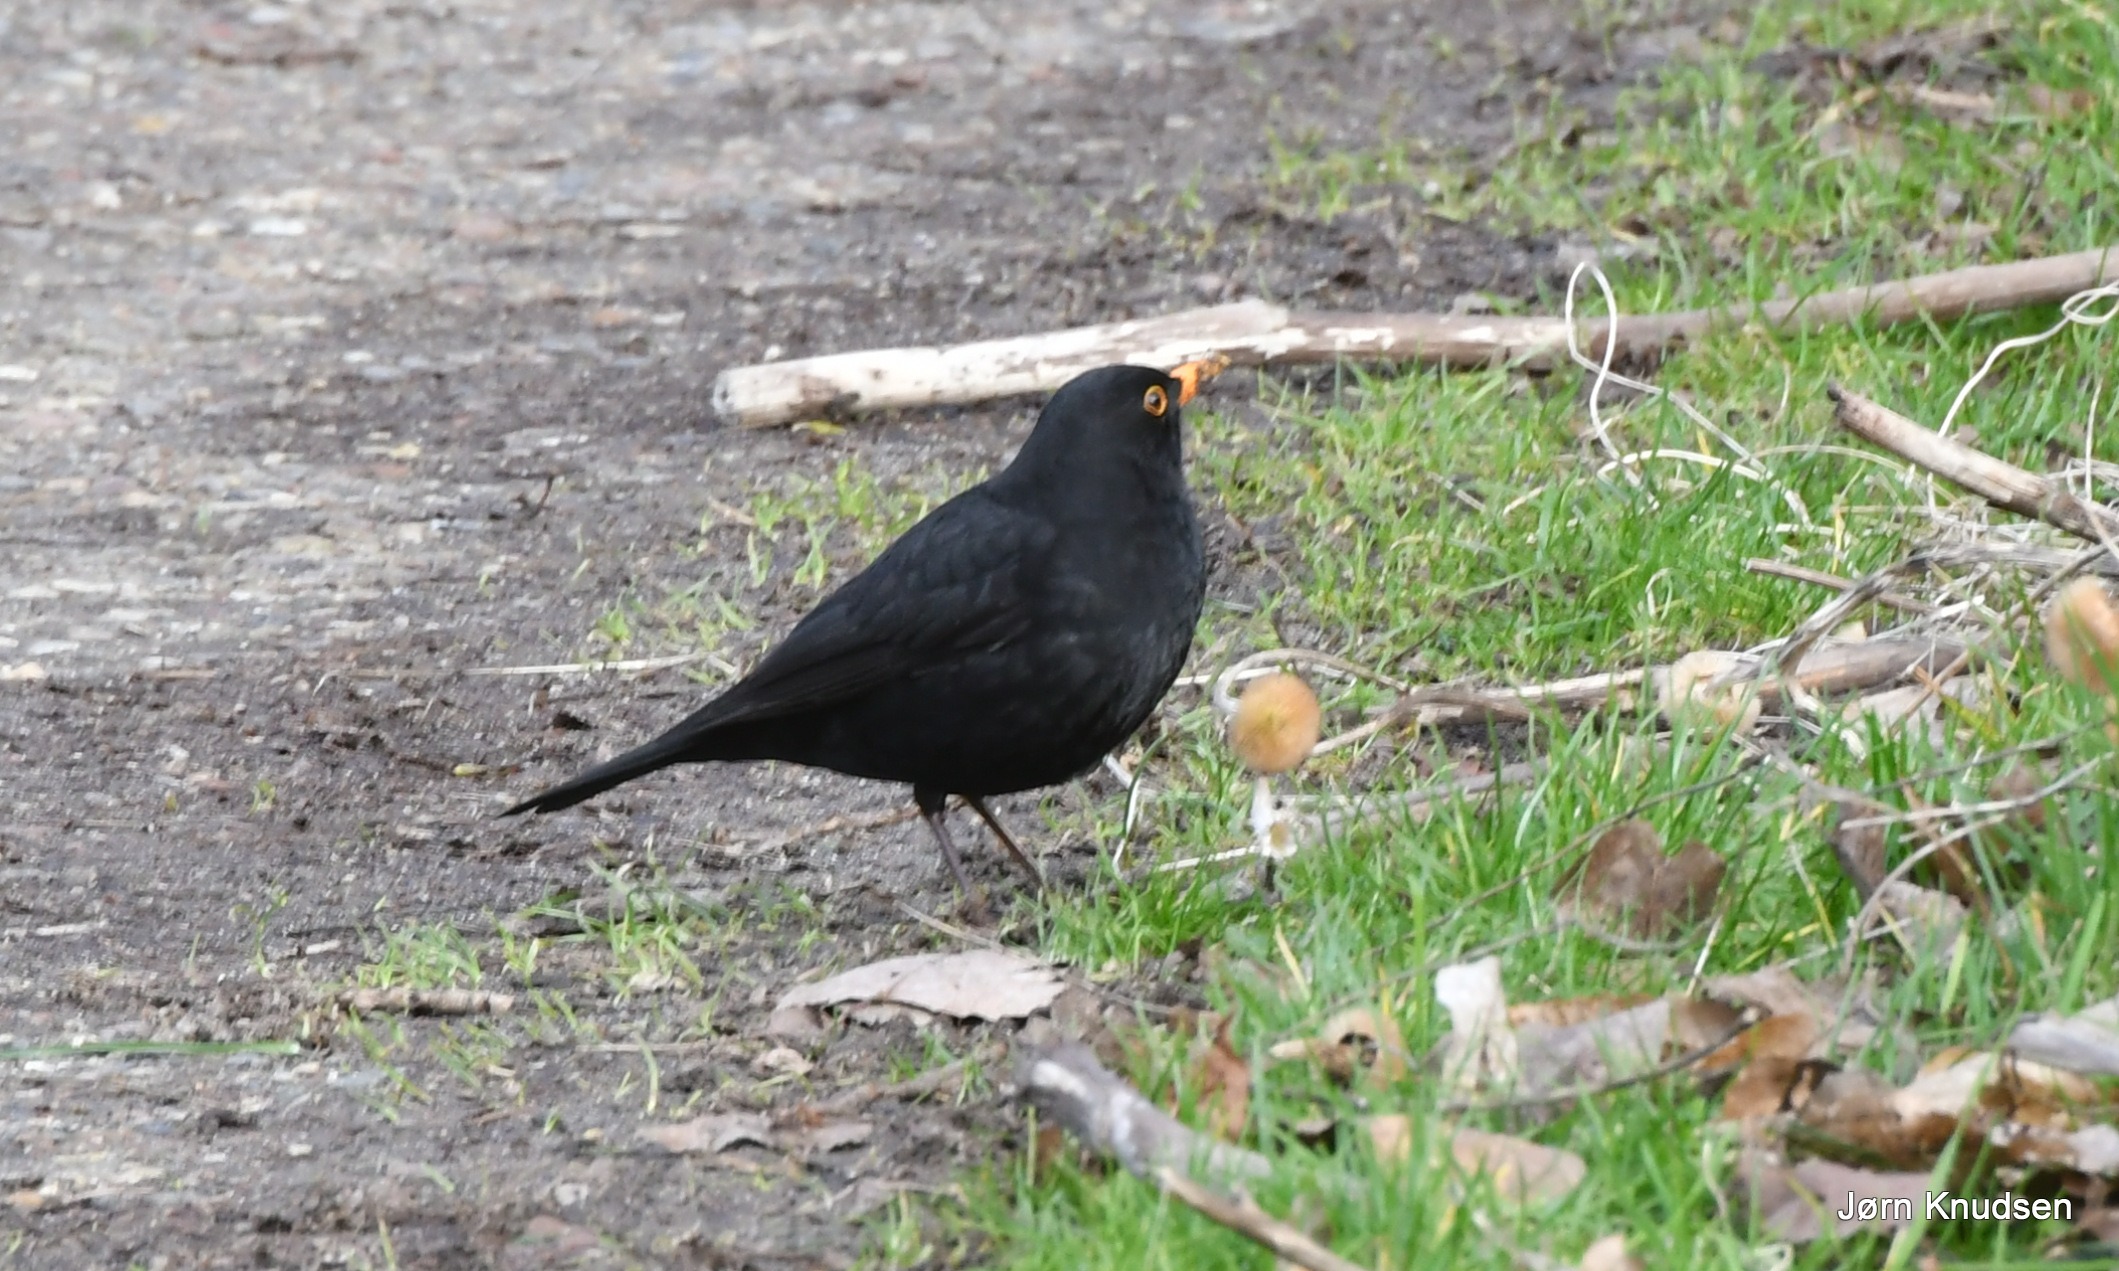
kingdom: Animalia
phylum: Chordata
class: Aves
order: Passeriformes
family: Turdidae
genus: Turdus
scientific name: Turdus merula
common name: Solsort
